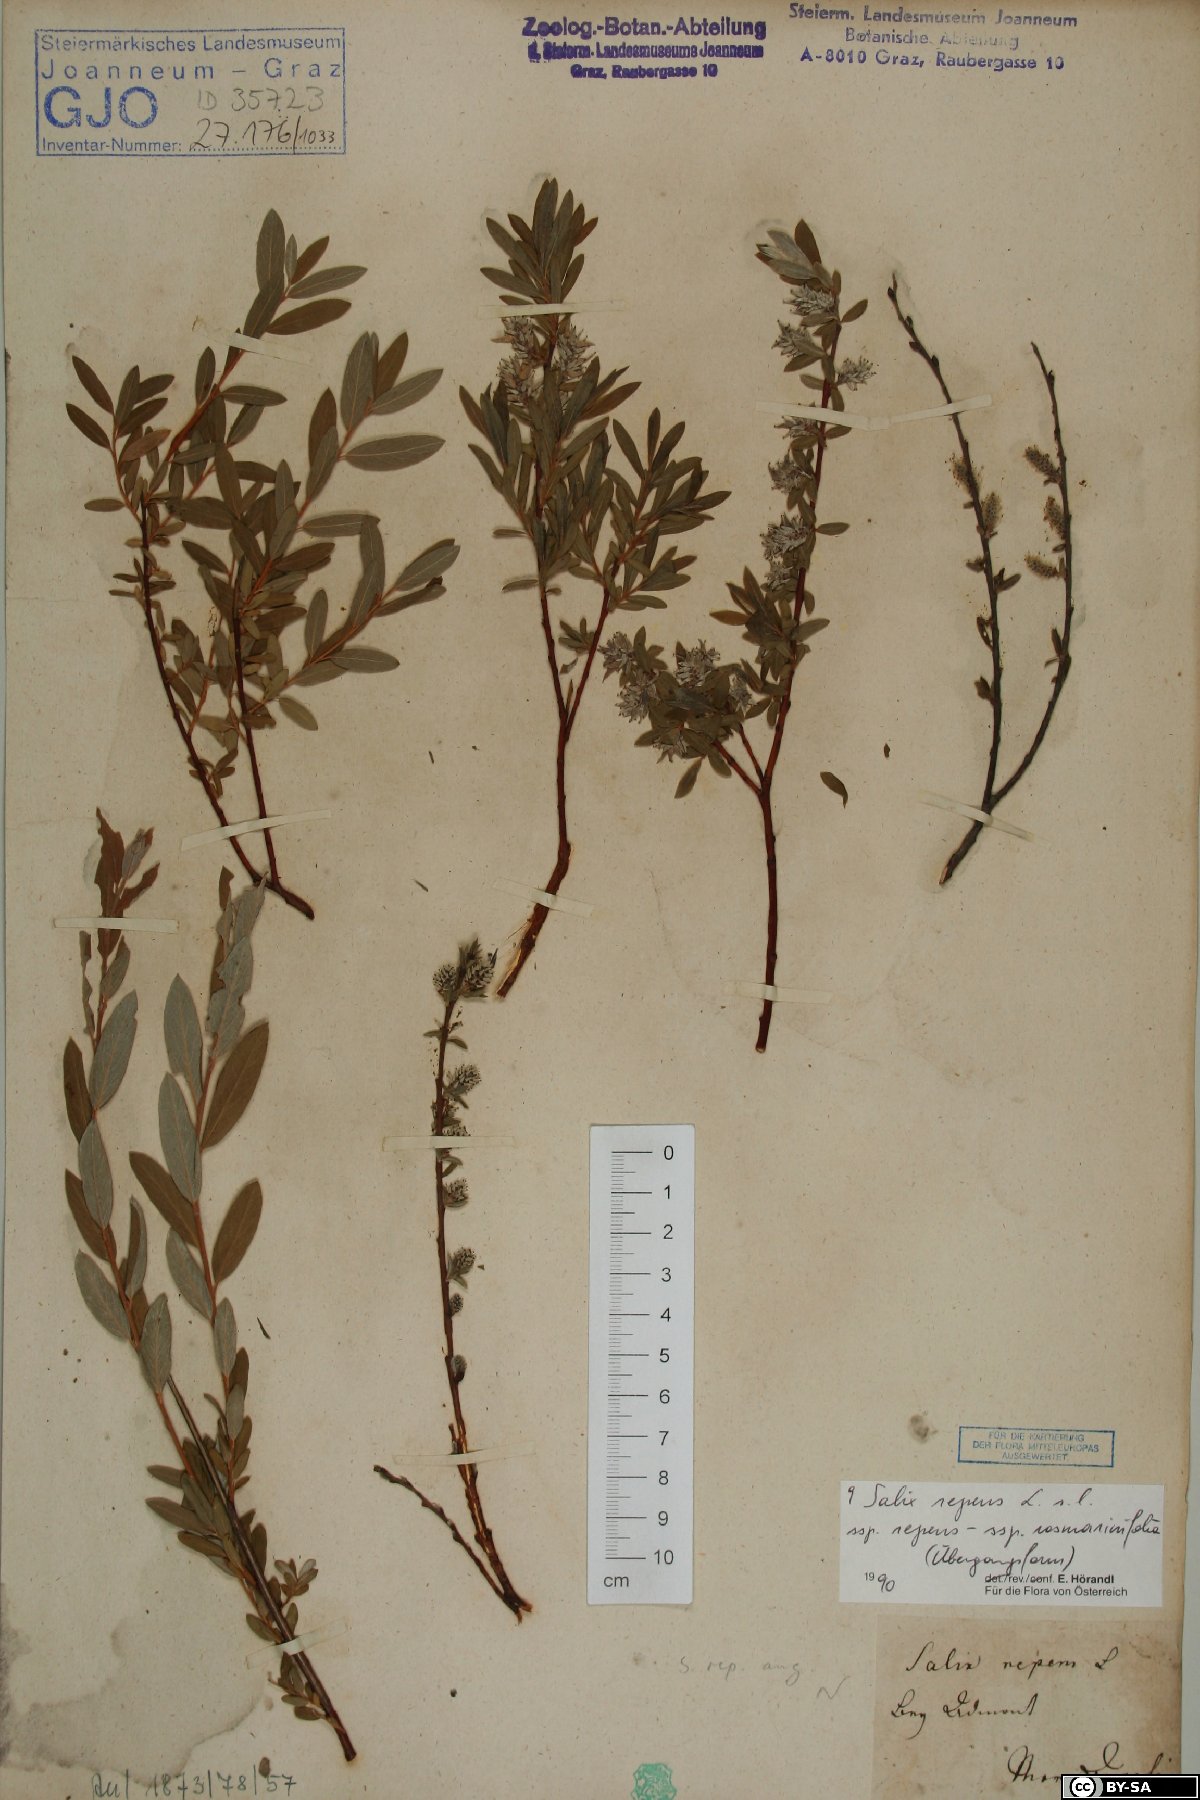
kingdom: Plantae
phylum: Tracheophyta
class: Magnoliopsida
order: Malpighiales
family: Salicaceae
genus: Salix
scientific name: Salix repens
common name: Creeping willow
